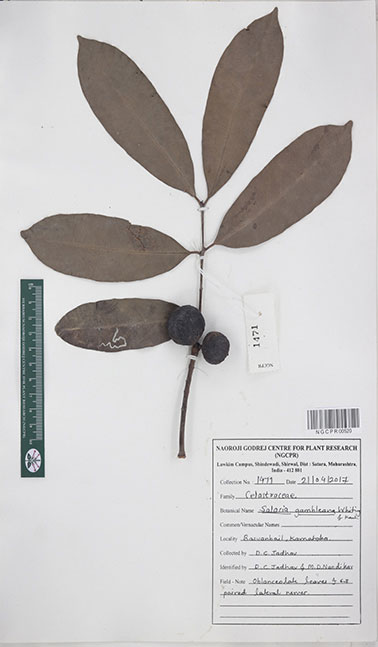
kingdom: Plantae
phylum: Tracheophyta
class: Magnoliopsida
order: Celastrales
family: Celastraceae
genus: Salacia
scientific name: Salacia gambleana
